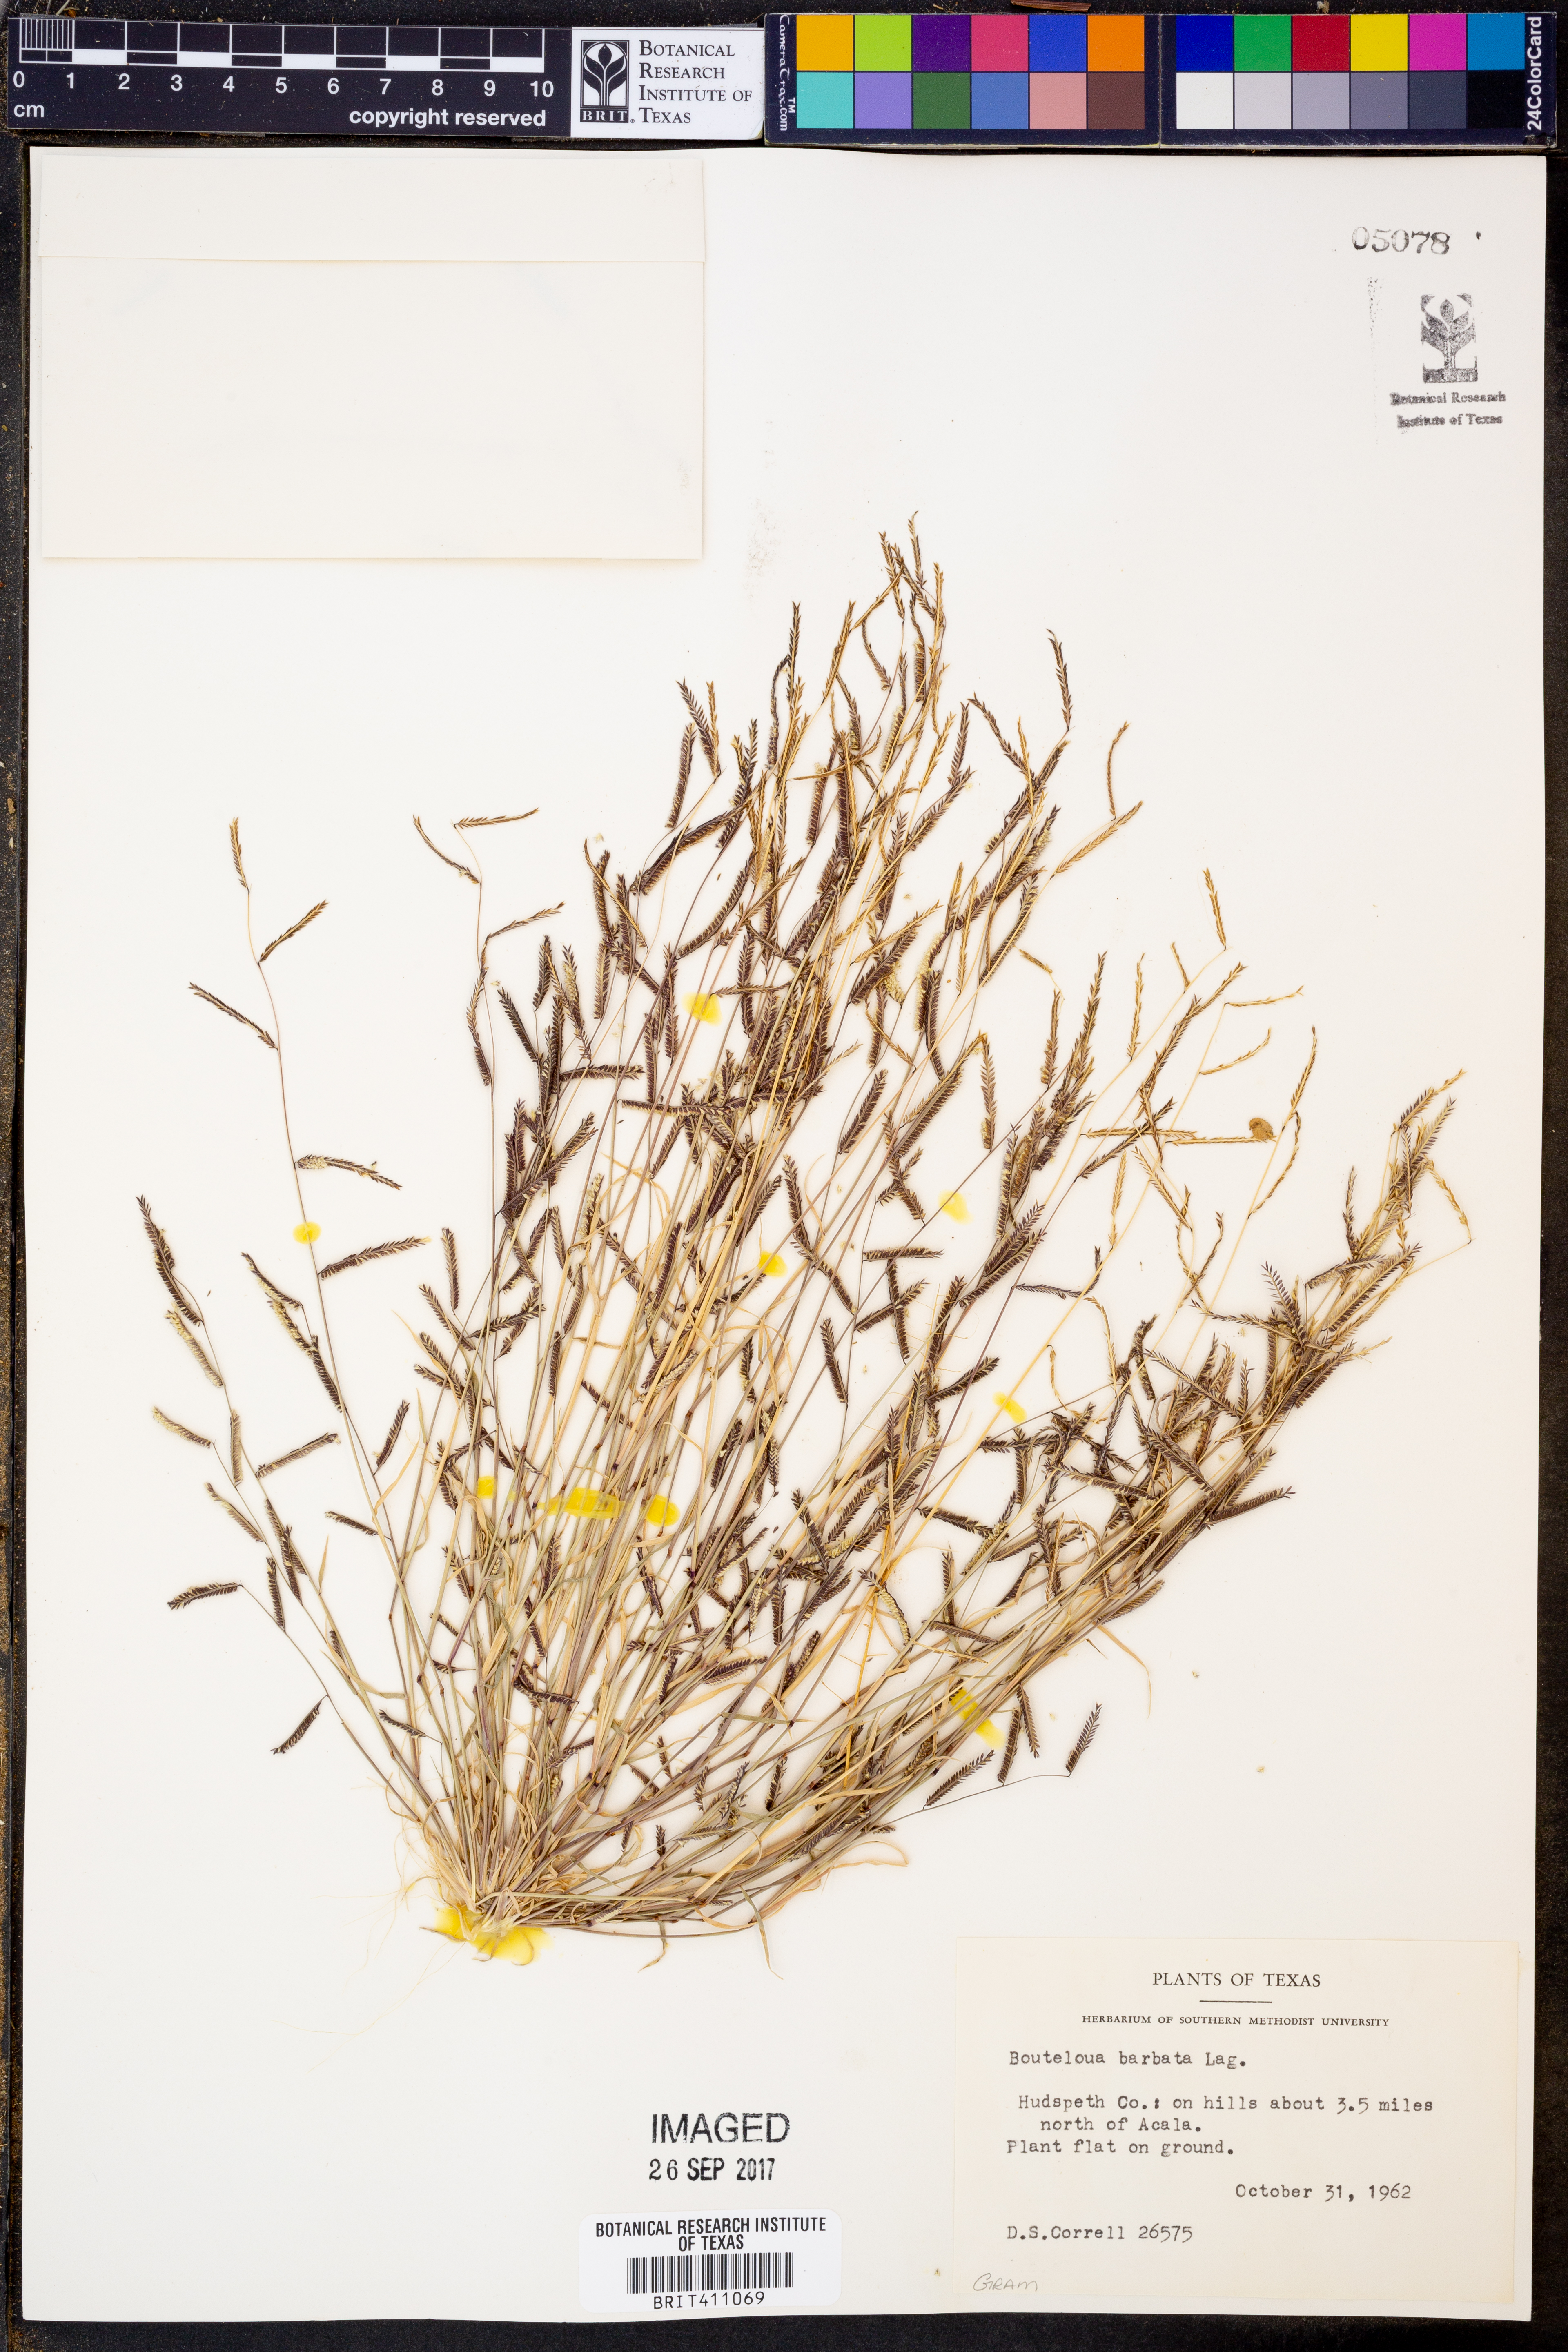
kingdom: Plantae
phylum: Tracheophyta
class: Liliopsida
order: Poales
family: Poaceae
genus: Bouteloua
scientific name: Bouteloua barbata
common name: Six-weeks grama
